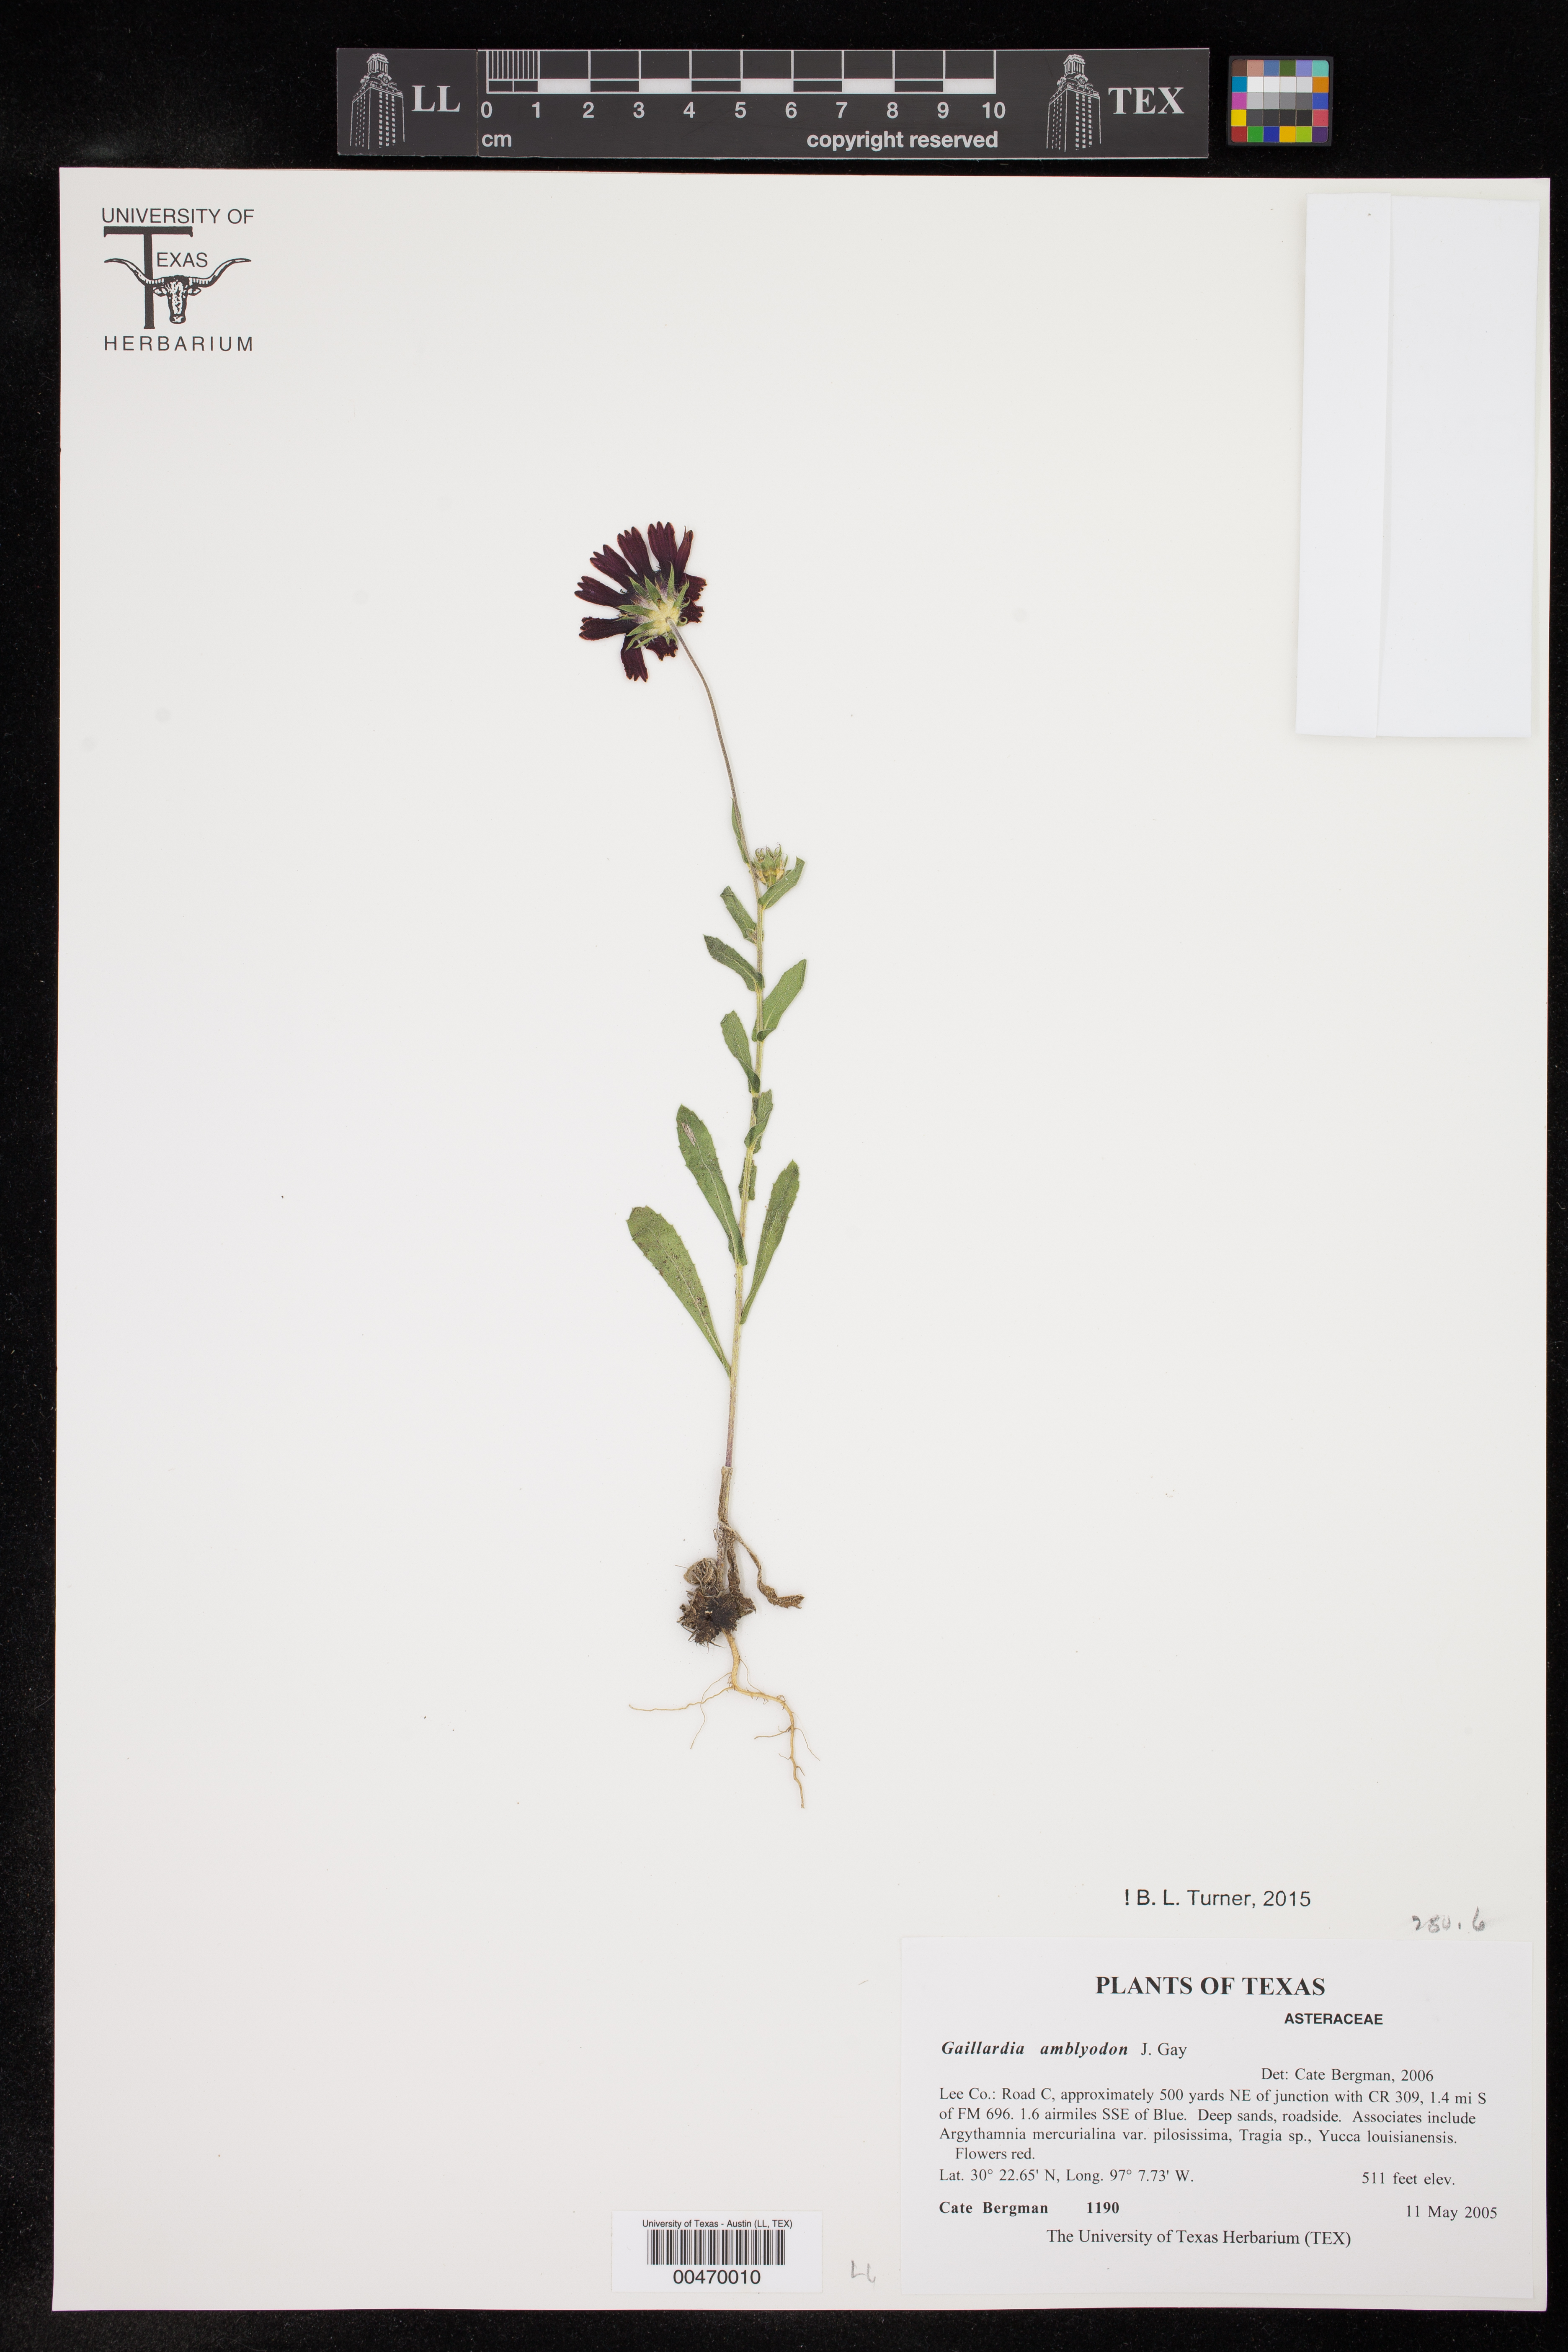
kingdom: Plantae
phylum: Tracheophyta
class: Magnoliopsida
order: Asterales
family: Asteraceae
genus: Gaillardia
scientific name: Gaillardia amblyodon
